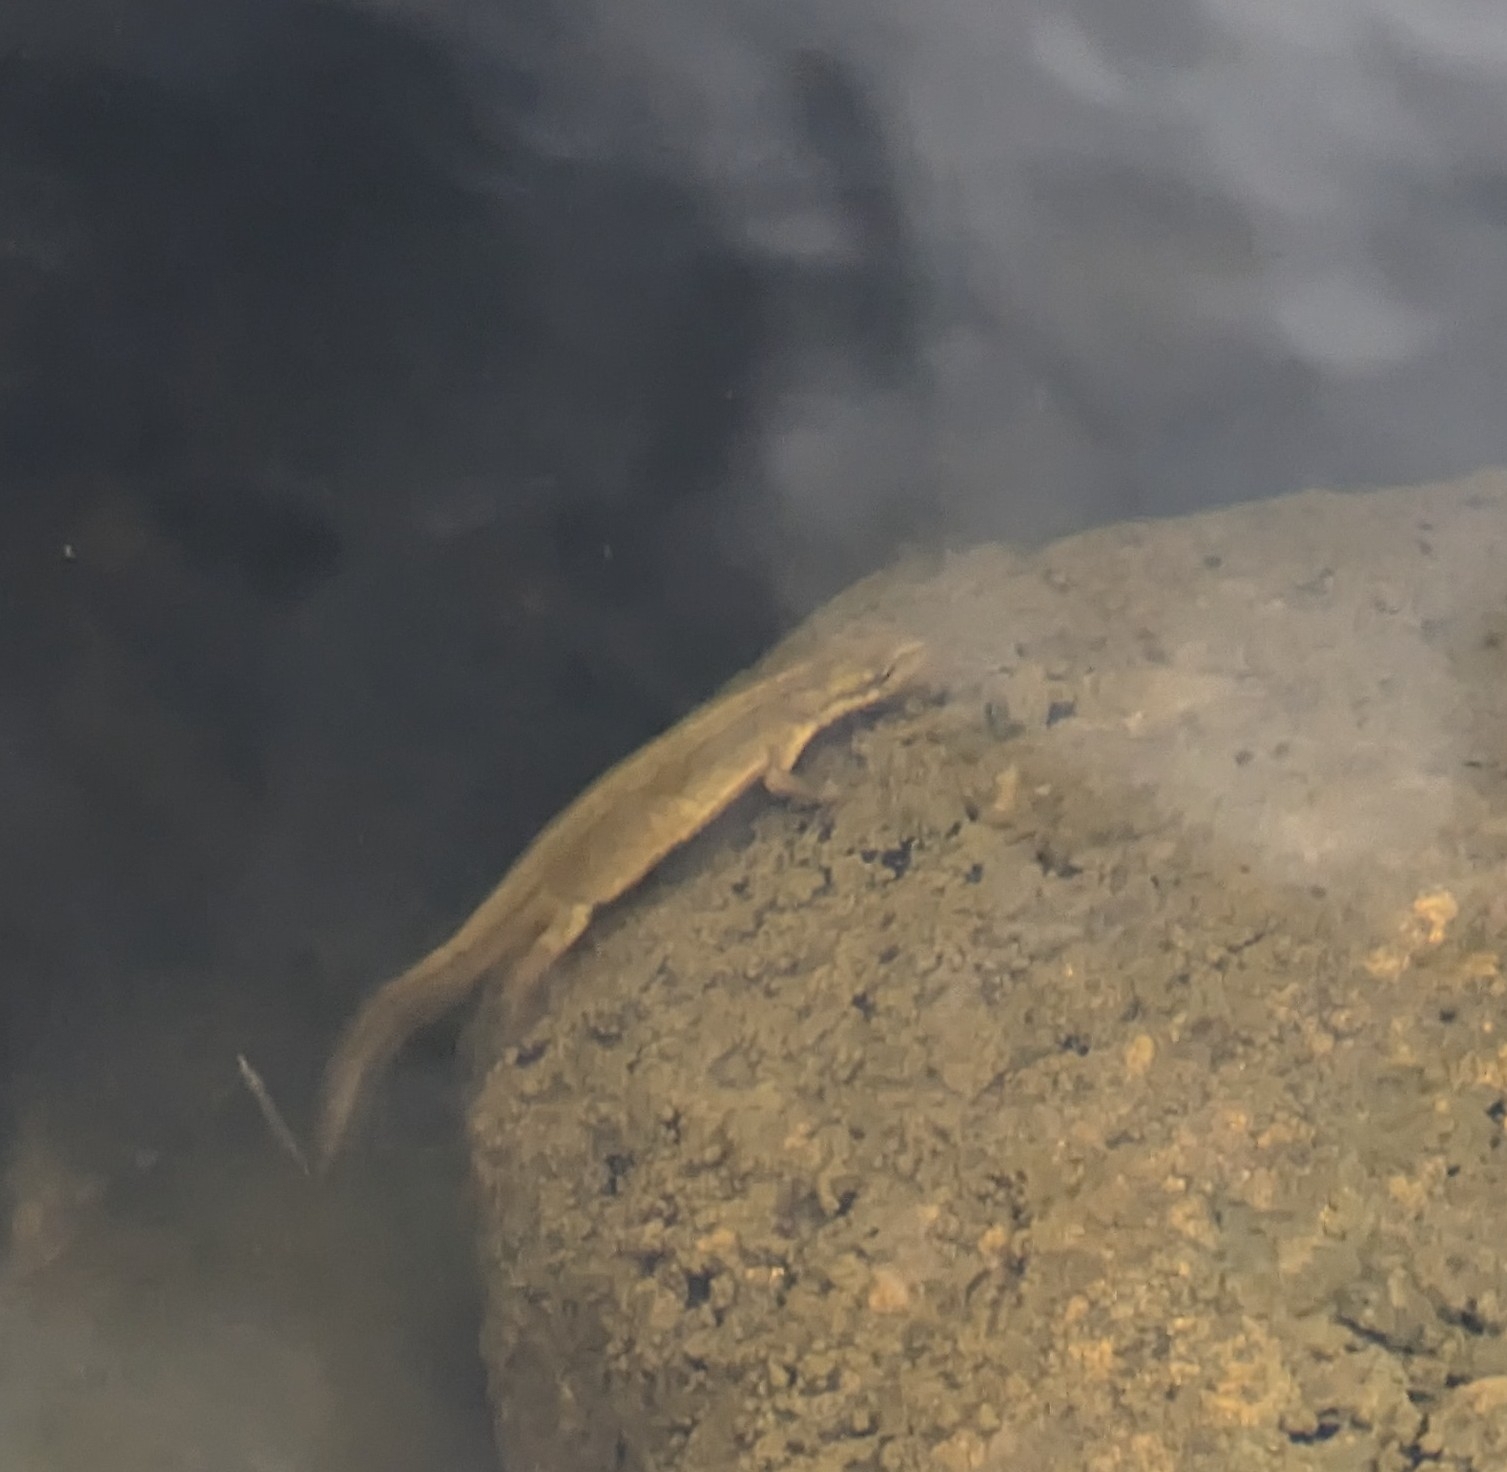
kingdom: Animalia
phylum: Chordata
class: Amphibia
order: Caudata
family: Salamandridae
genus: Lissotriton
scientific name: Lissotriton vulgaris
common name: Lille vandsalamander
